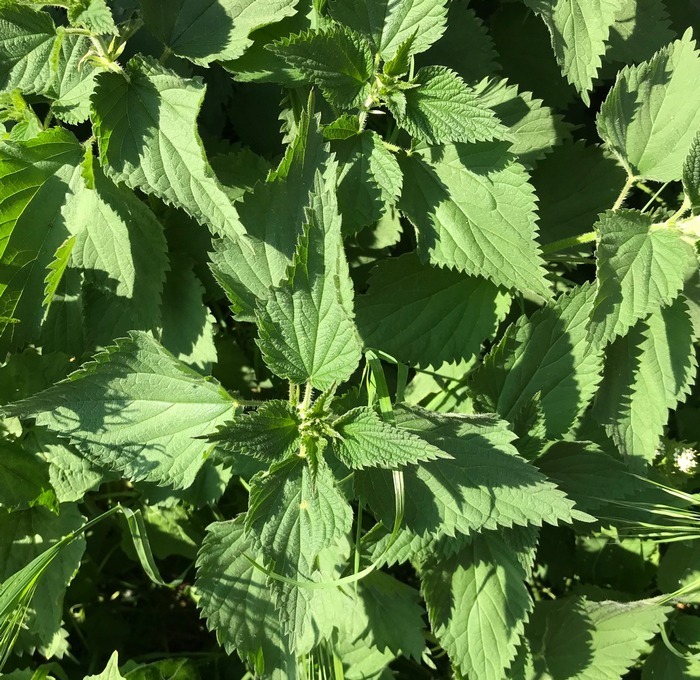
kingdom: Plantae
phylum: Tracheophyta
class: Magnoliopsida
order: Rosales
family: Urticaceae
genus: Urtica
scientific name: Urtica dioica
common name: Stor nælde
